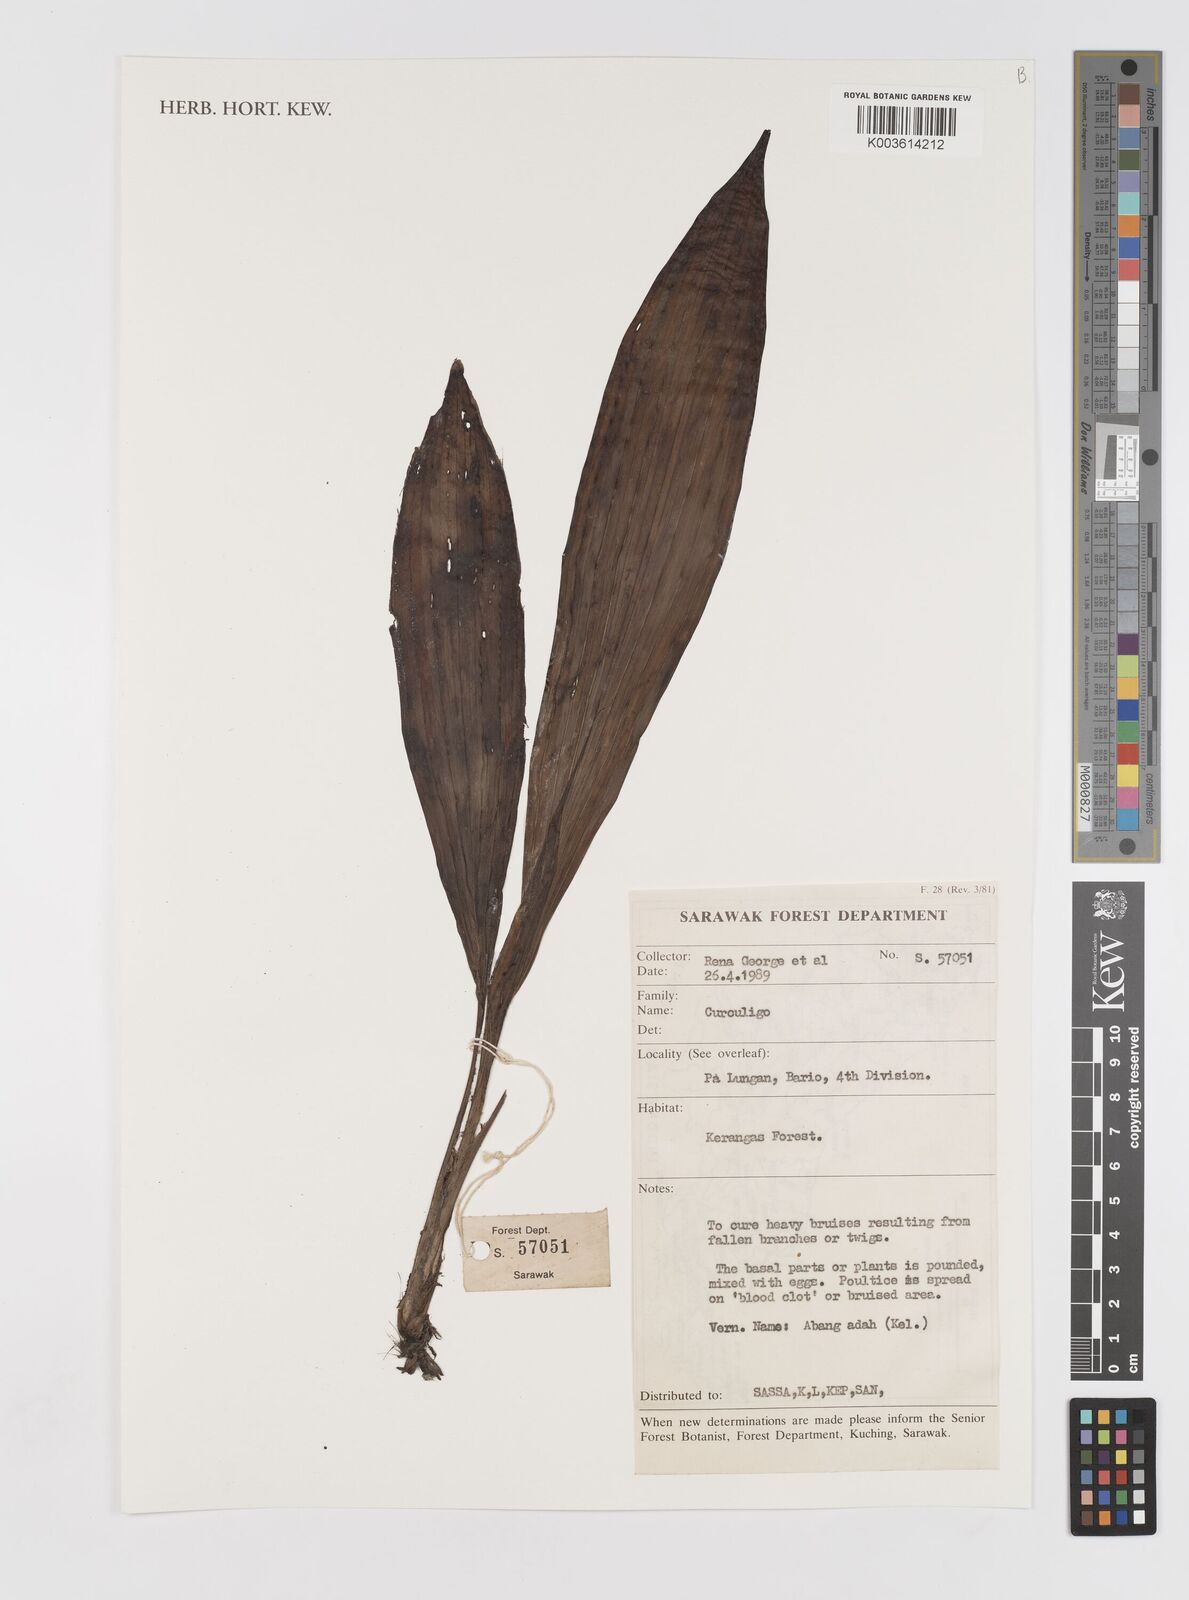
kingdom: Plantae
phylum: Tracheophyta
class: Liliopsida
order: Asparagales
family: Hypoxidaceae
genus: Curculigo
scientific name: Curculigo
